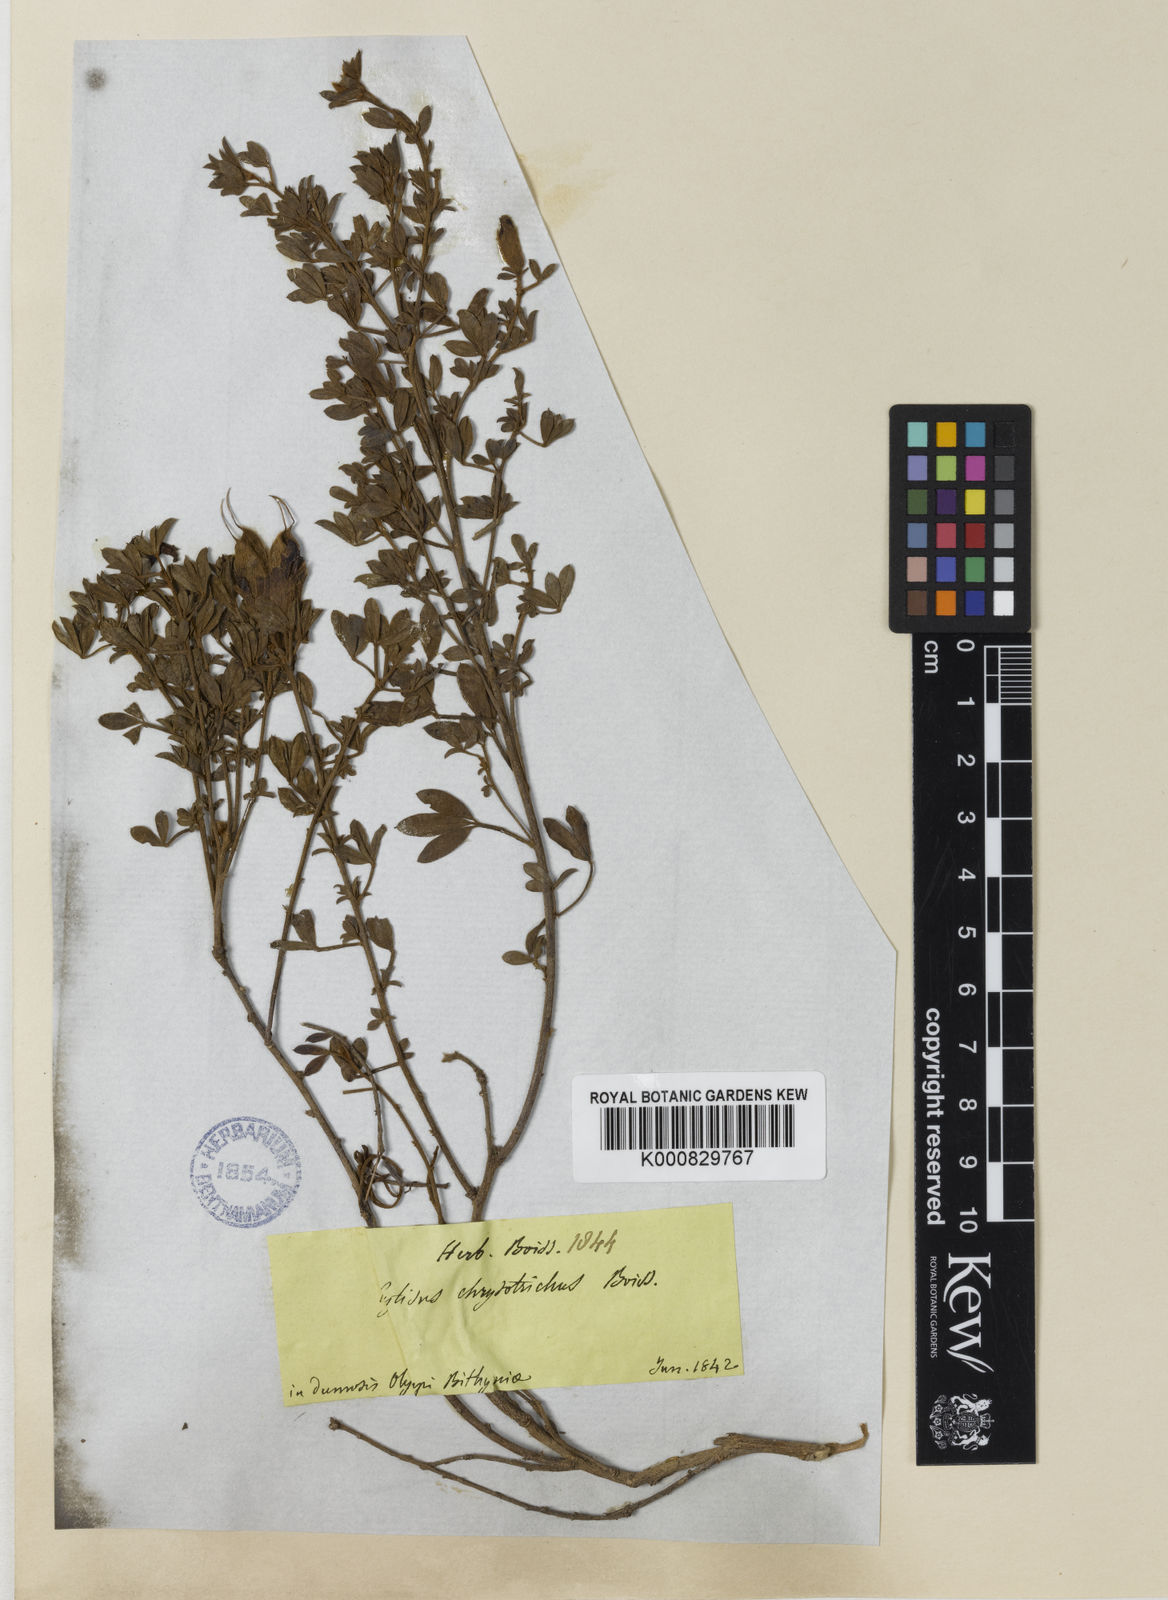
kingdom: Plantae
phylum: Tracheophyta
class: Magnoliopsida
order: Fabales
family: Fabaceae
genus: Chamaecytisus
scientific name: Chamaecytisus pygmaeus
